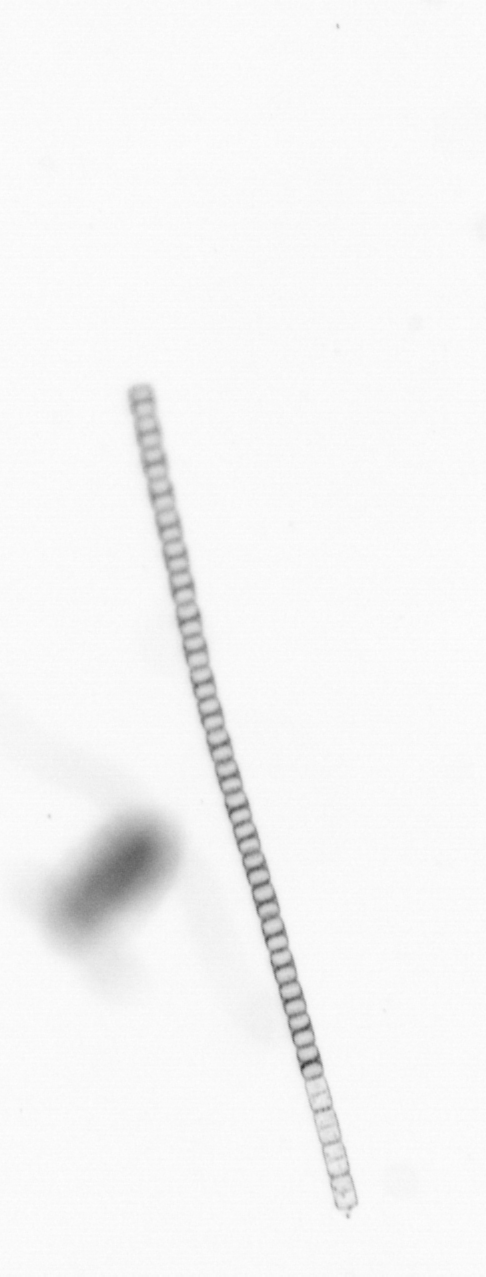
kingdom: Chromista
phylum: Ochrophyta
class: Bacillariophyceae
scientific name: Bacillariophyceae
